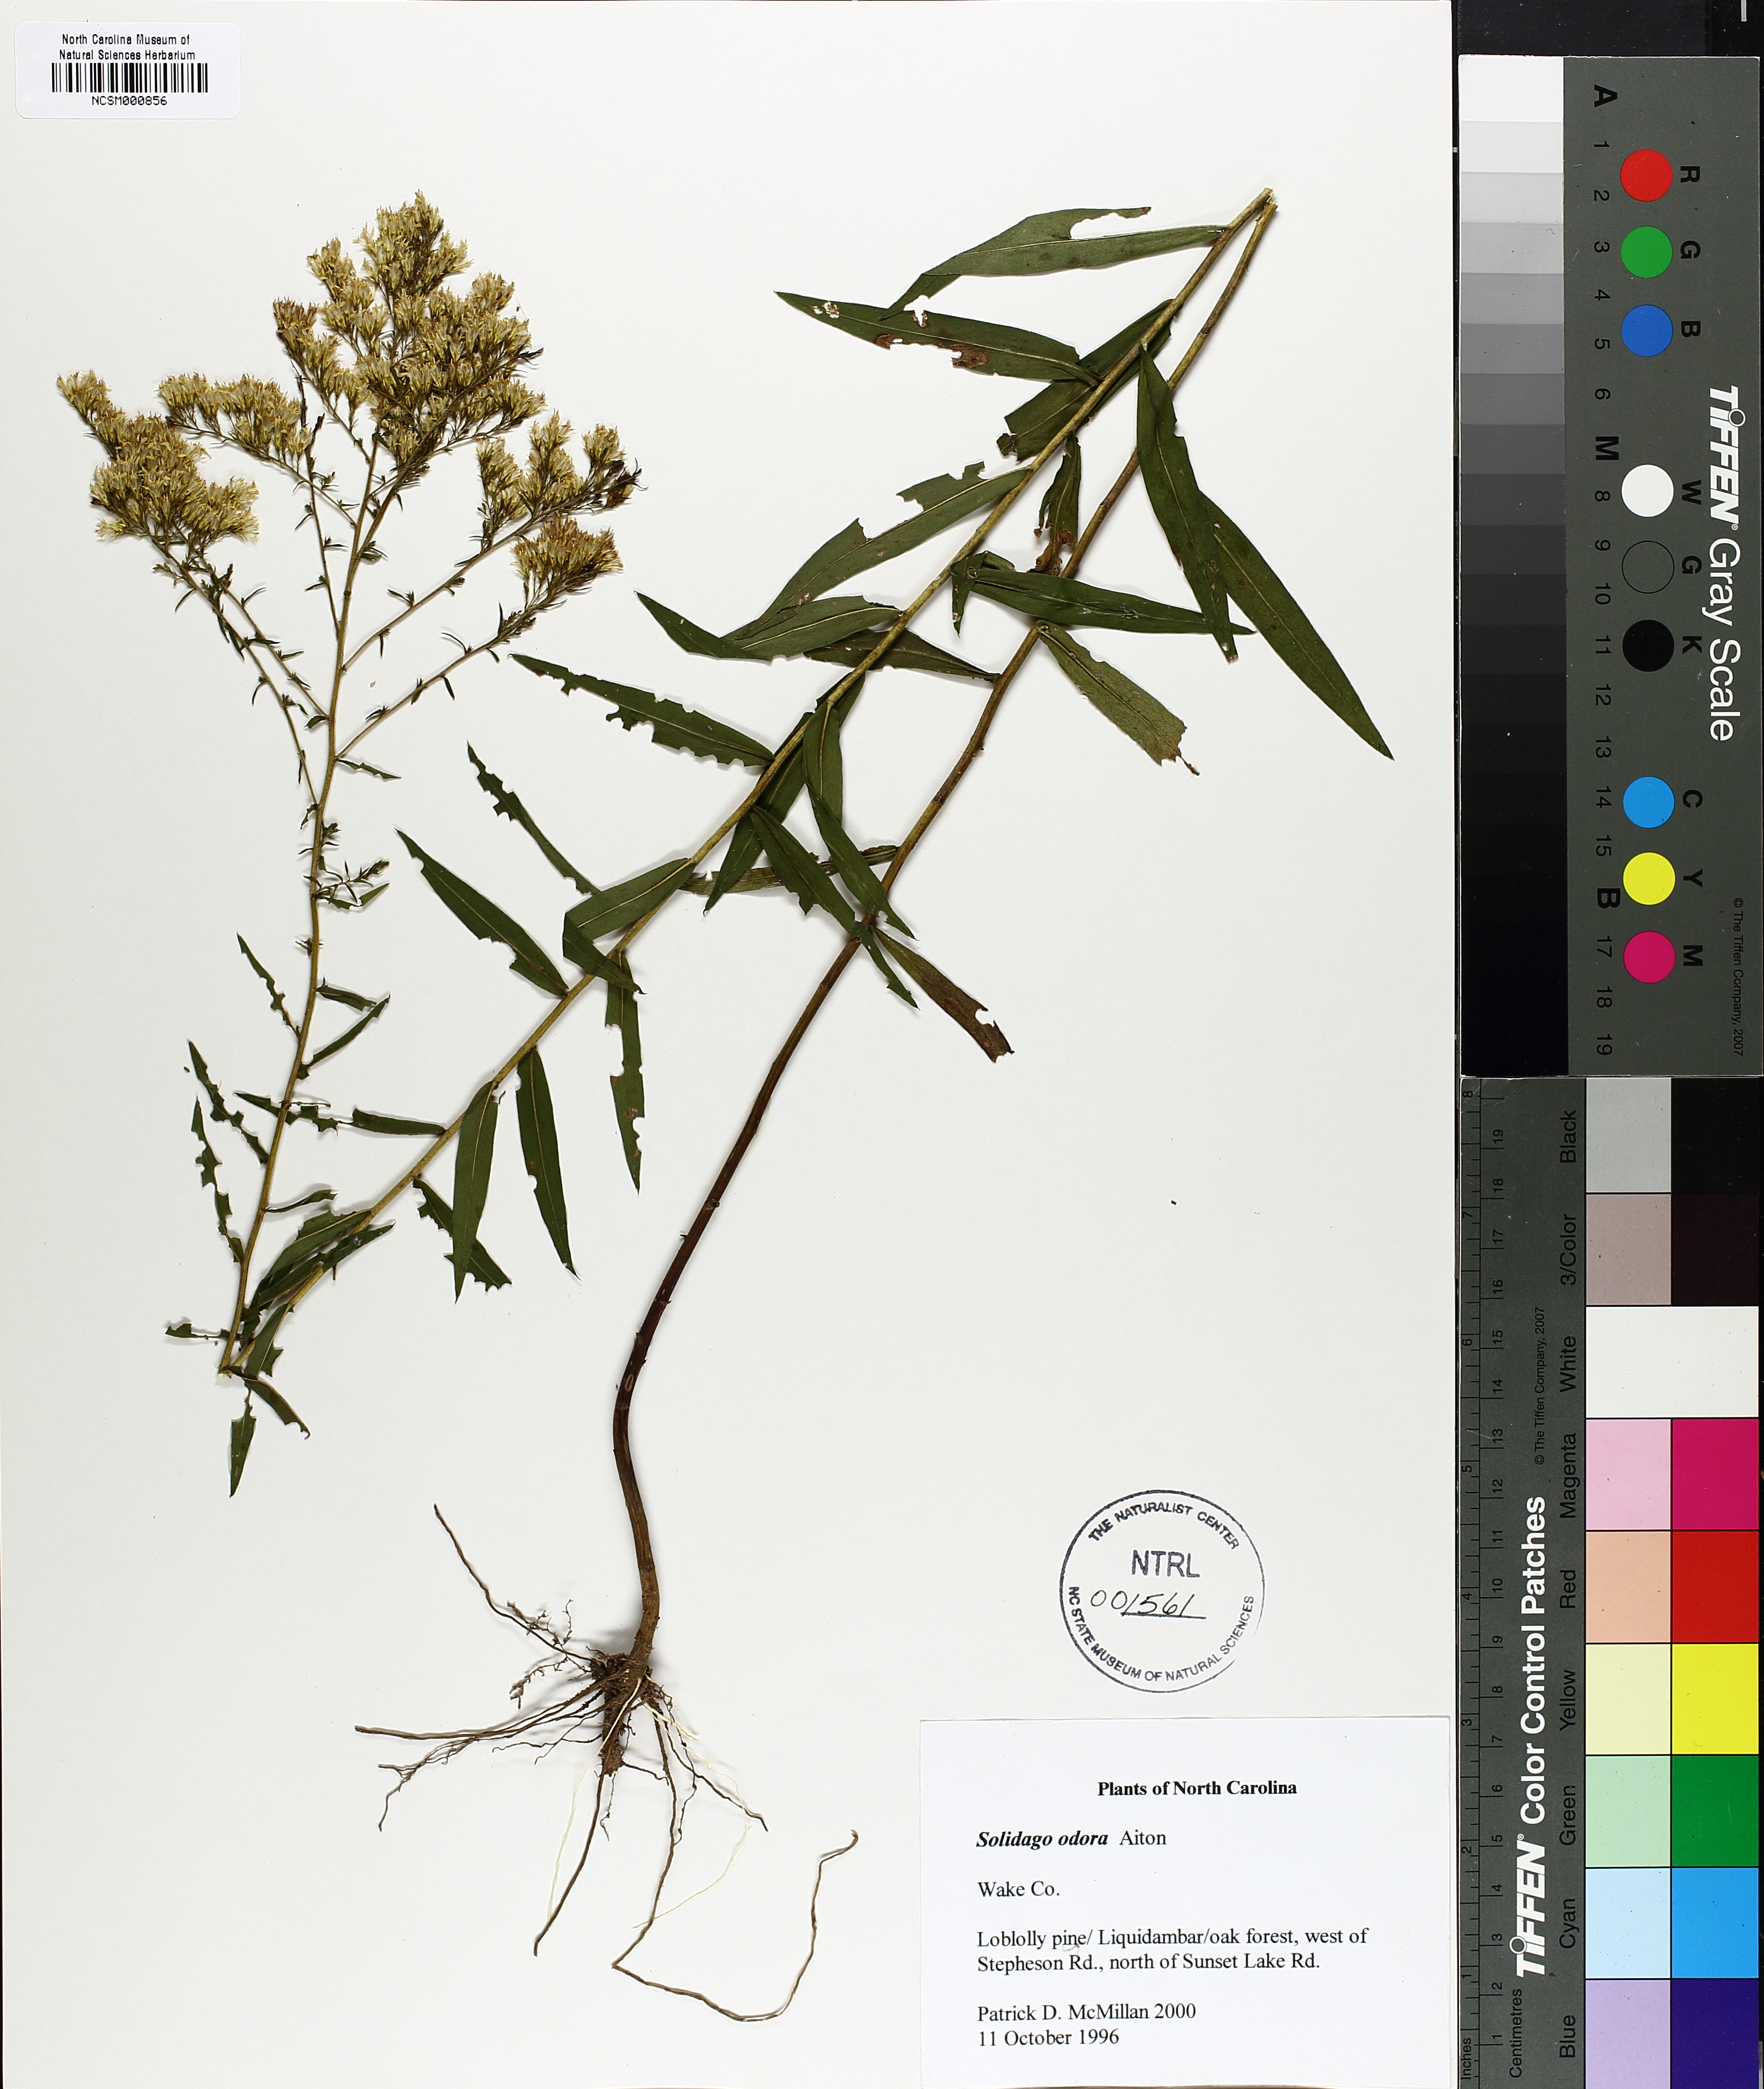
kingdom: Plantae
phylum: Tracheophyta
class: Magnoliopsida
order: Asterales
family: Asteraceae
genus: Solidago
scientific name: Solidago odora
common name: Anise-scented goldenrod
